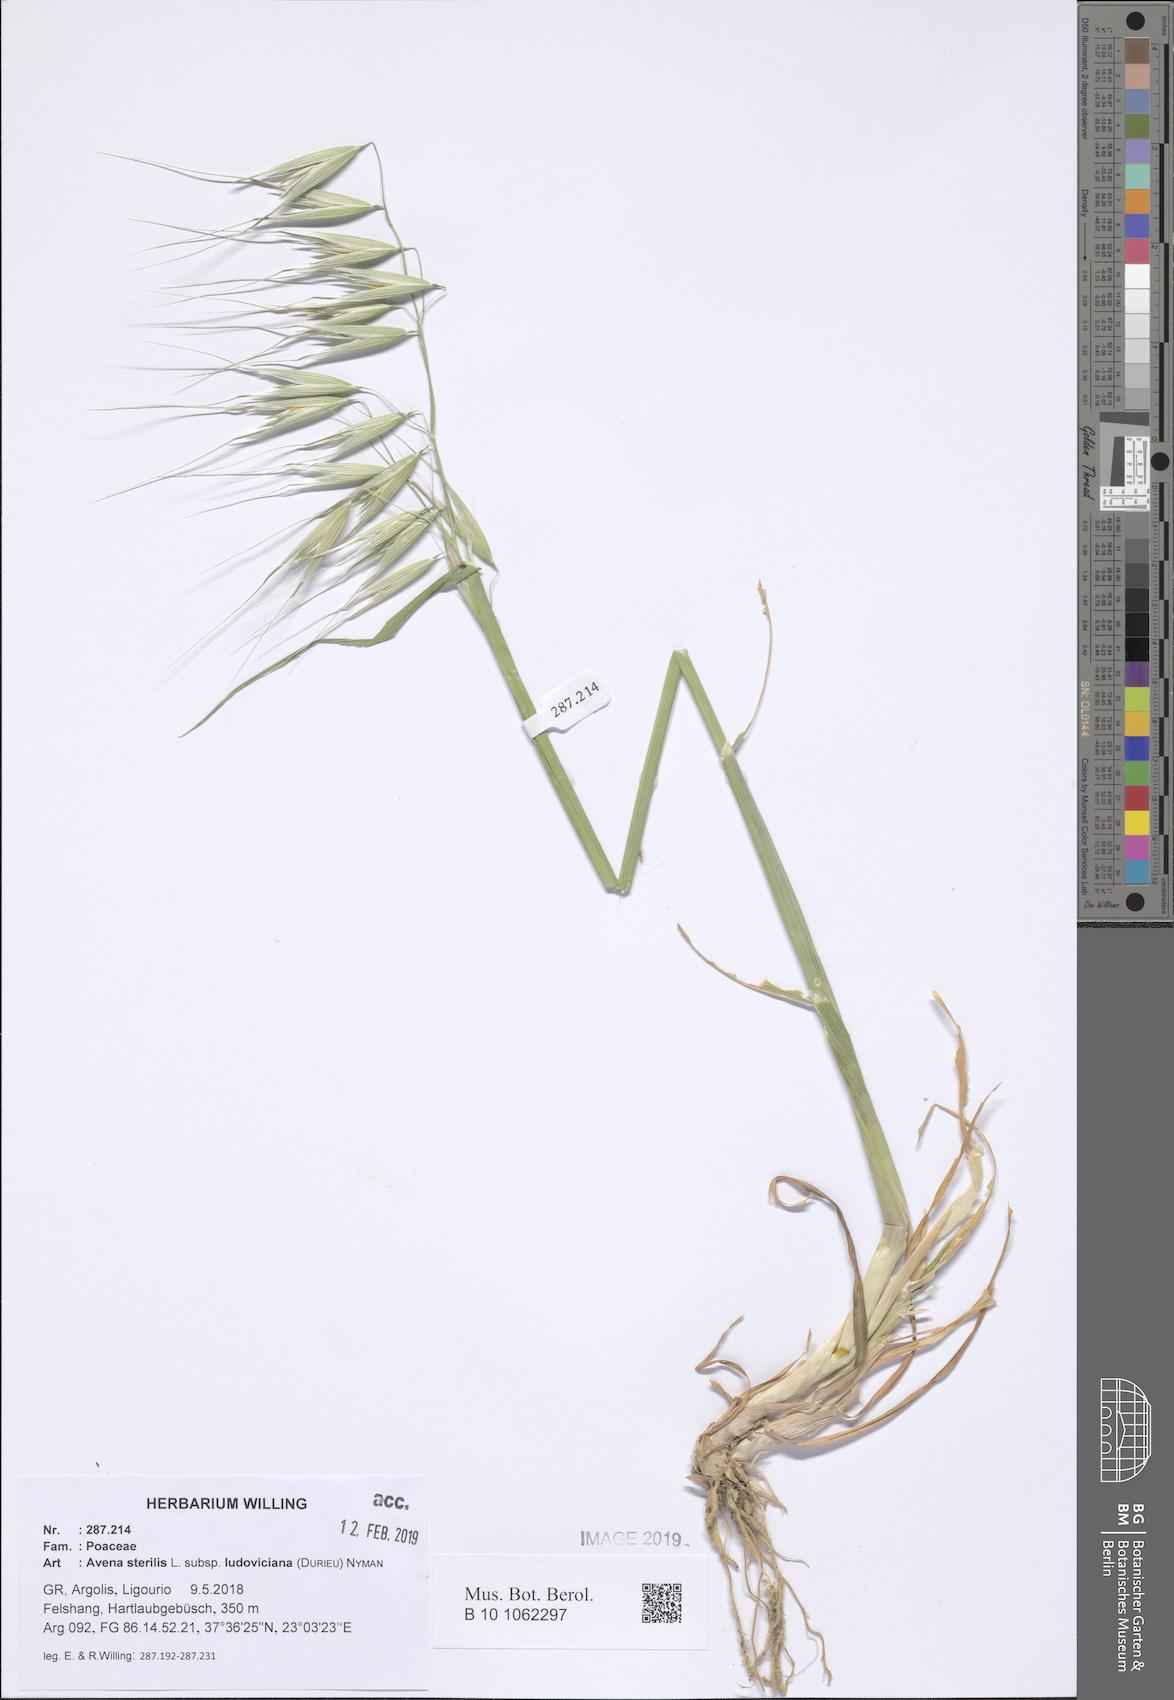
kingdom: Plantae
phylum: Tracheophyta
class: Liliopsida
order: Poales
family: Poaceae
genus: Avena
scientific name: Avena sterilis
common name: Animated oat
